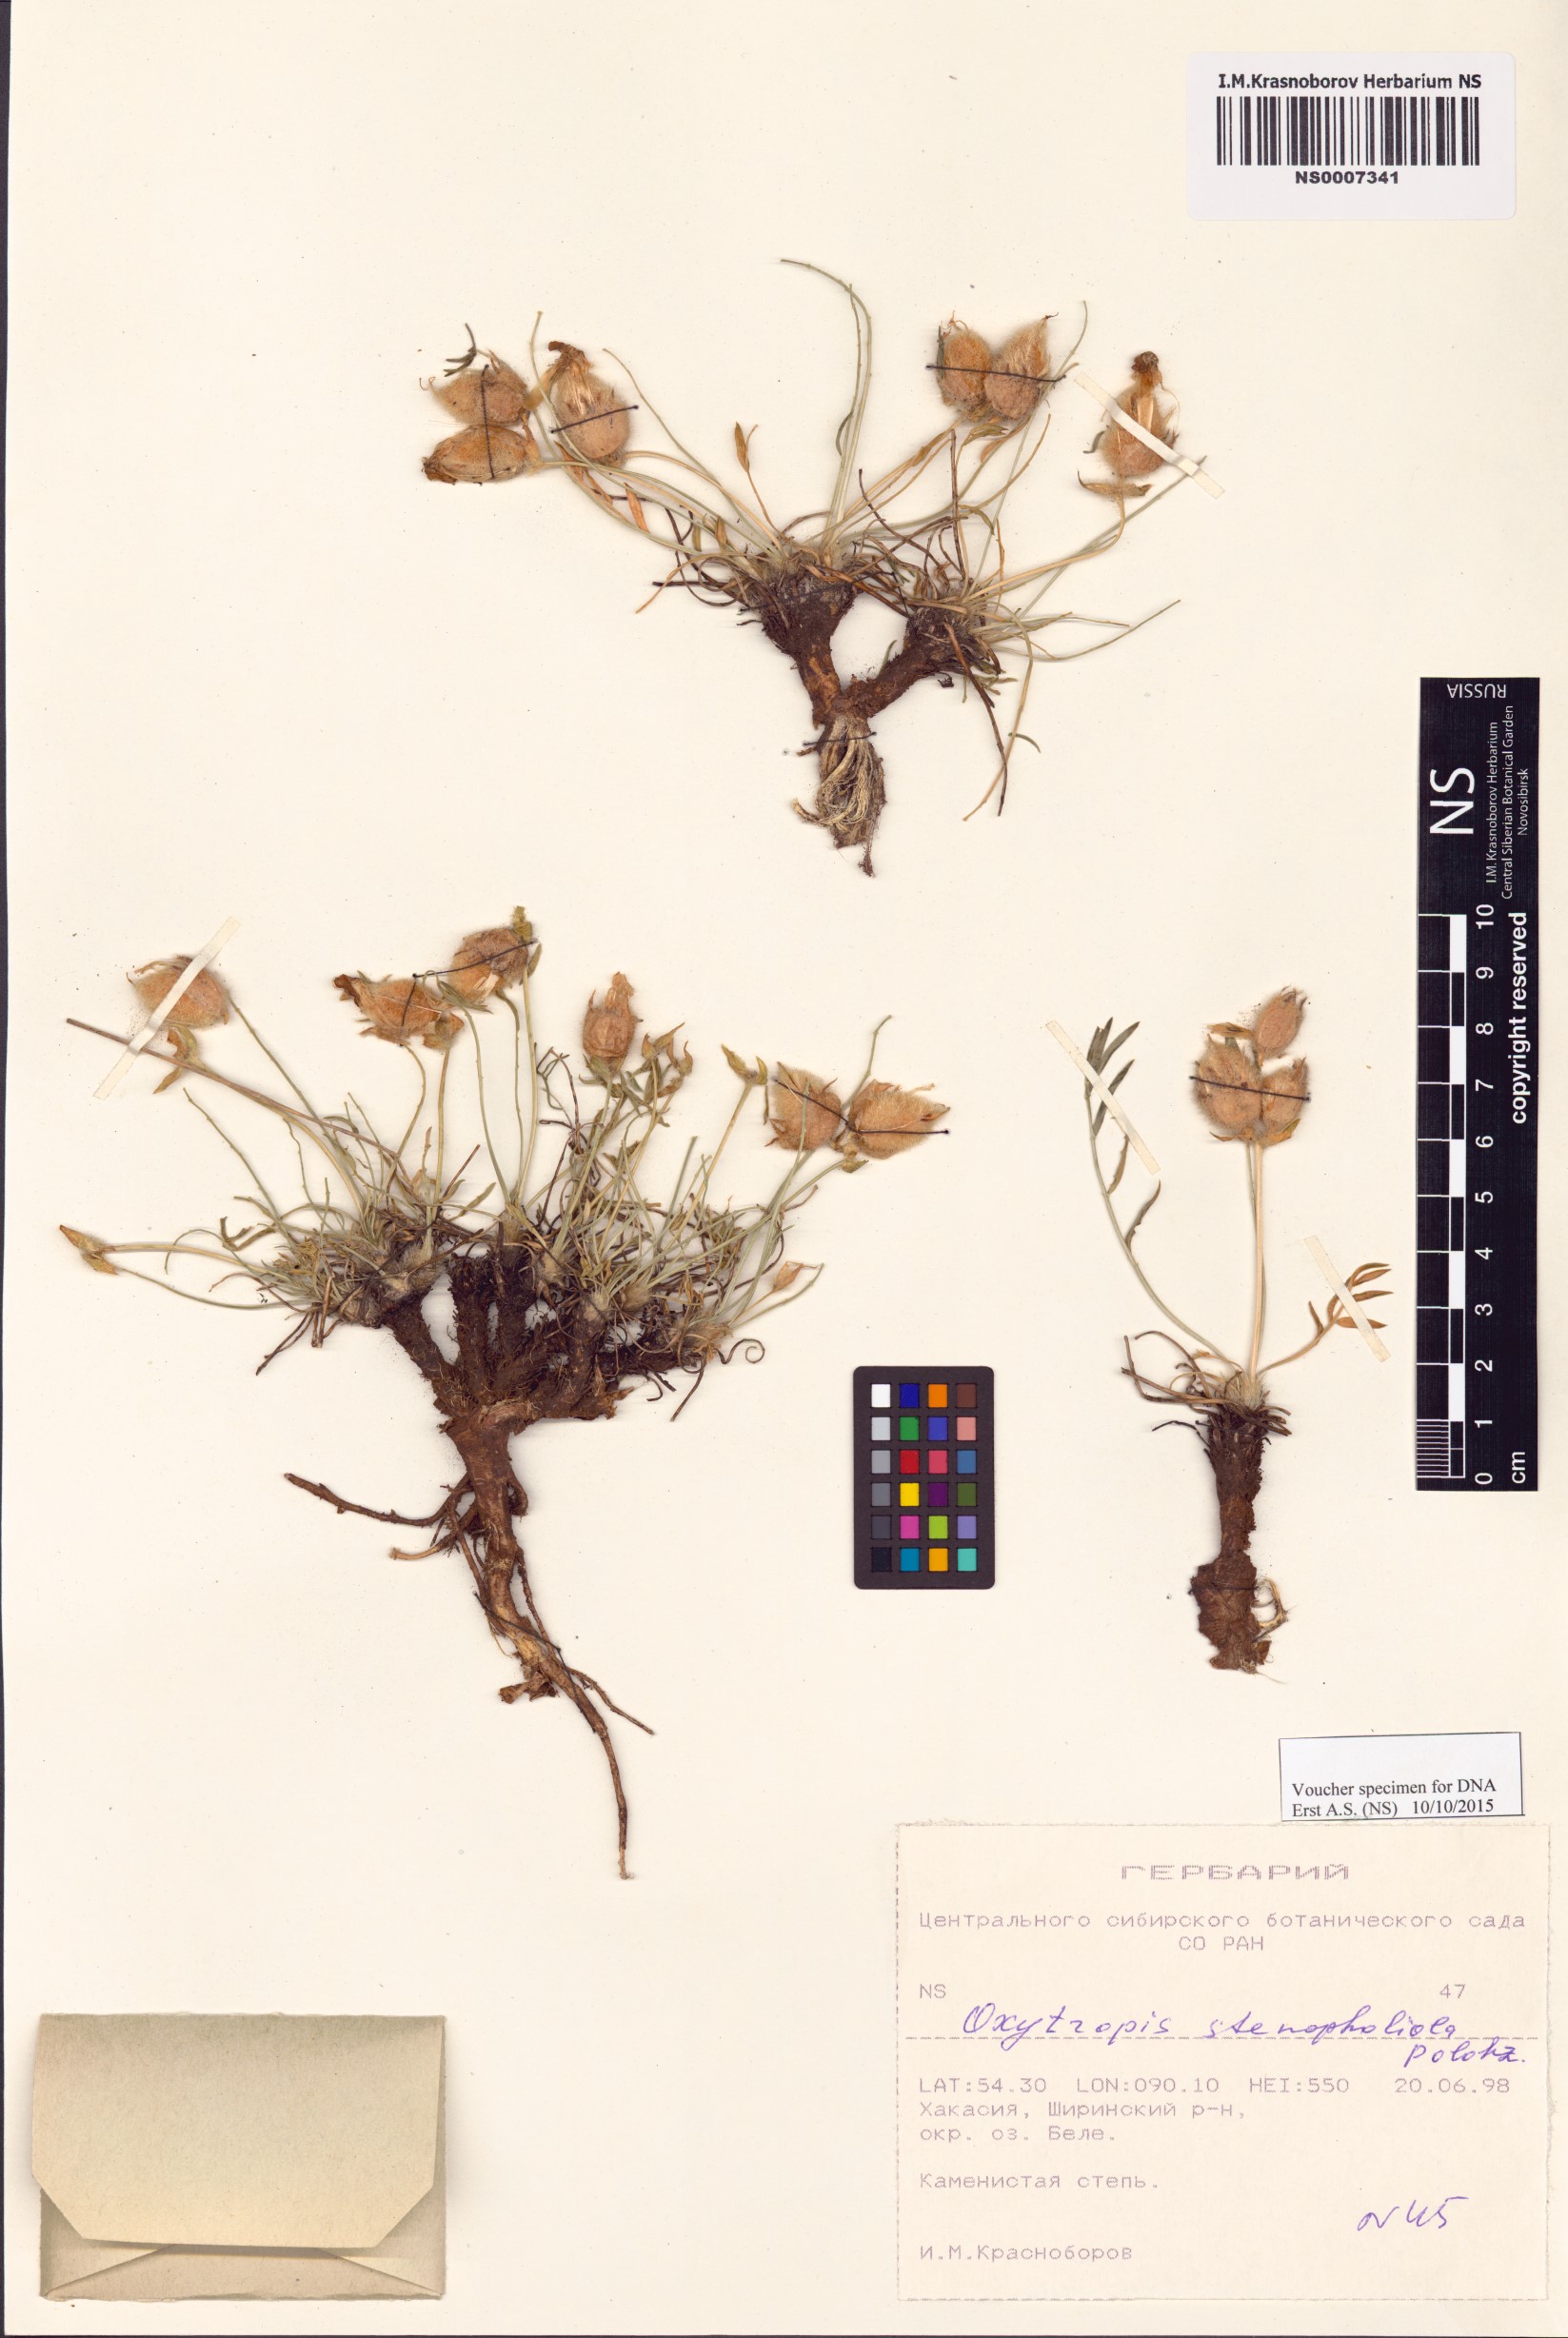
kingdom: Plantae
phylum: Tracheophyta
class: Magnoliopsida
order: Fabales
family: Fabaceae
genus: Oxytropis
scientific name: Oxytropis stenofoliola
